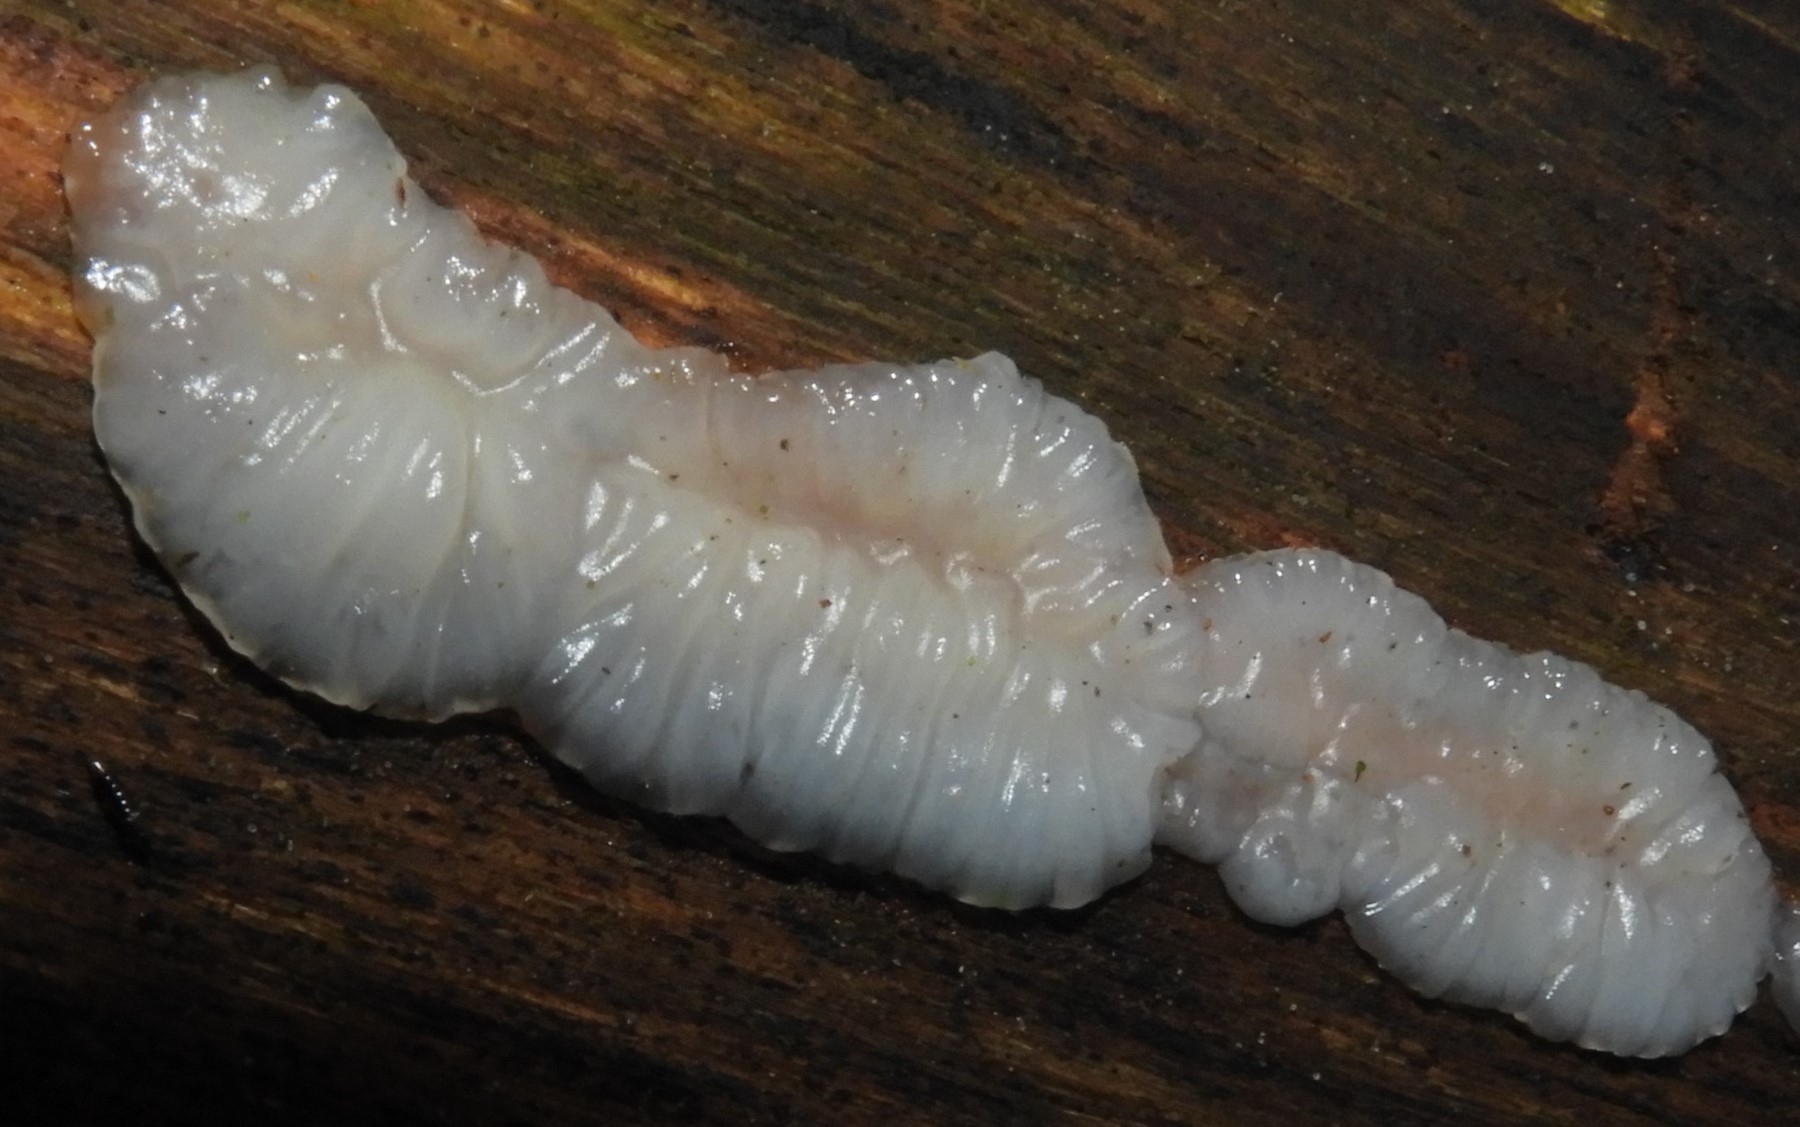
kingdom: Fungi
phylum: Basidiomycota
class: Agaricomycetes
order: Auriculariales
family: Auriculariaceae
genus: Exidia
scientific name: Exidia thuretiana
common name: hvidlig bævretop
